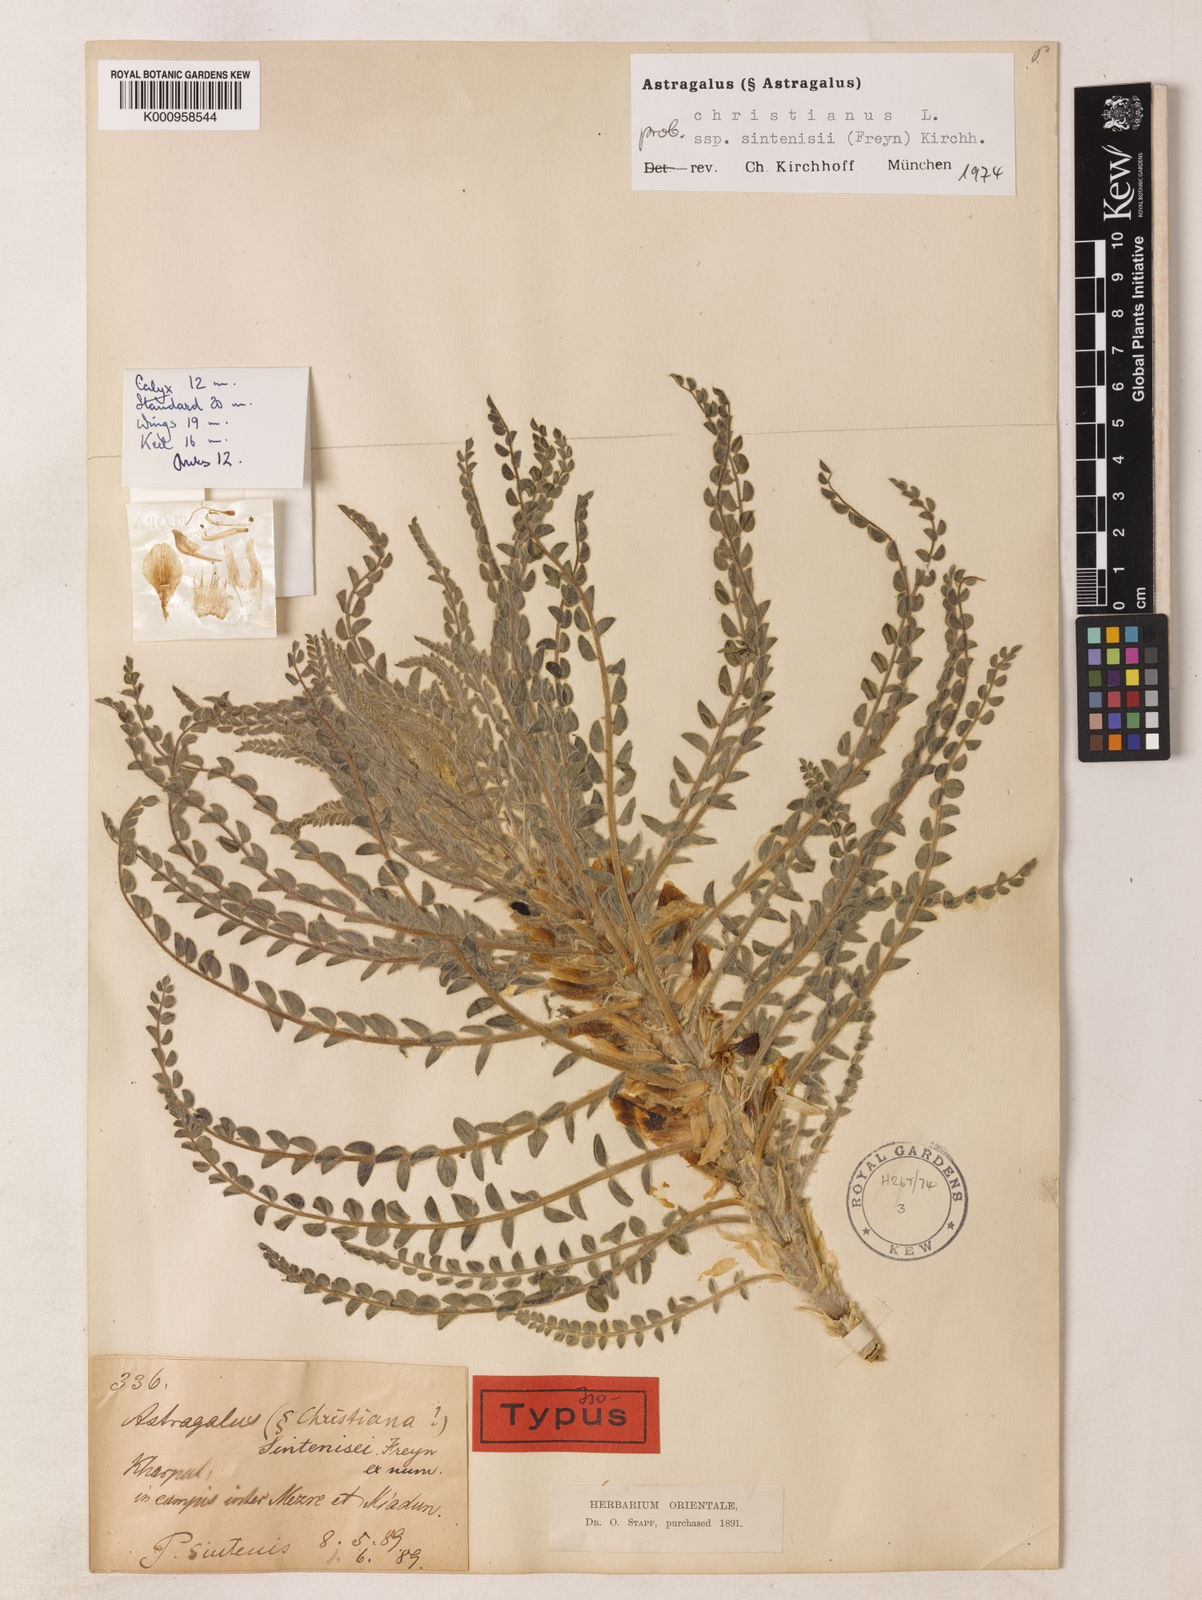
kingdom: Plantae
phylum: Tracheophyta
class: Magnoliopsida
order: Fabales
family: Fabaceae
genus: Astragalus
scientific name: Astragalus christianus
